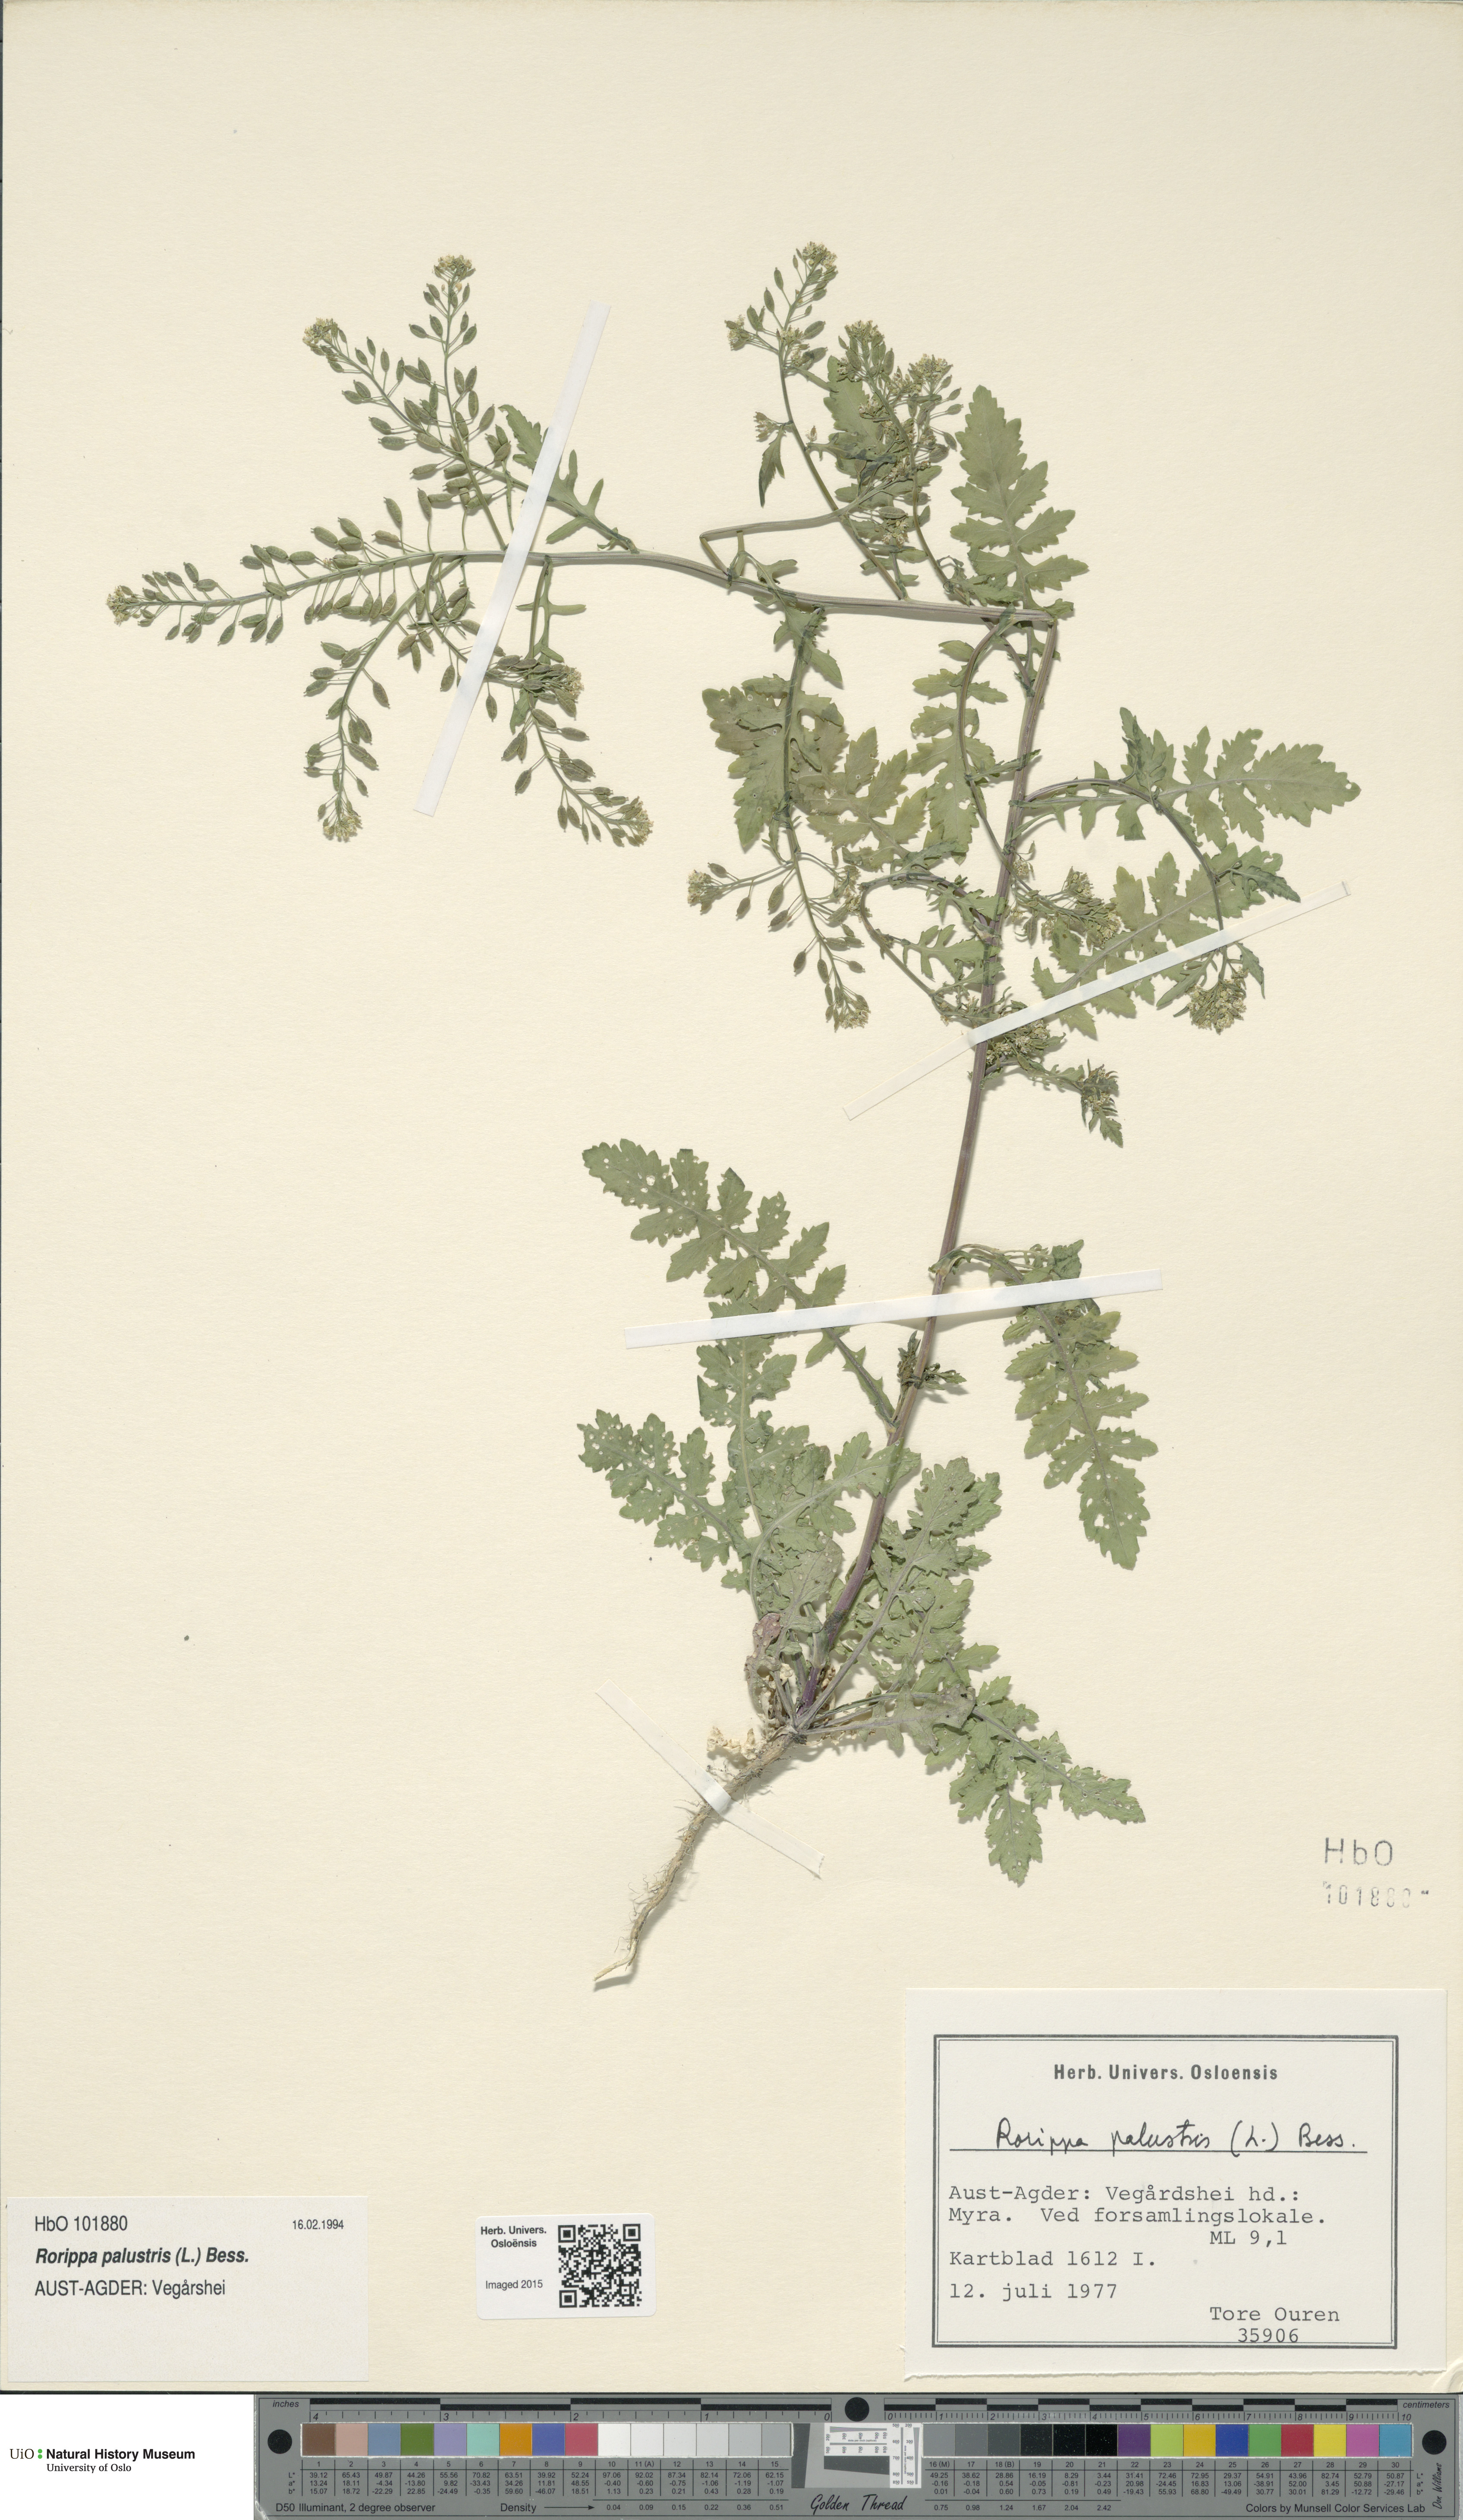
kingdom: Plantae
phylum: Tracheophyta
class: Magnoliopsida
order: Brassicales
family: Brassicaceae
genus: Rorippa
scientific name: Rorippa palustris
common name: Marsh yellow-cress
